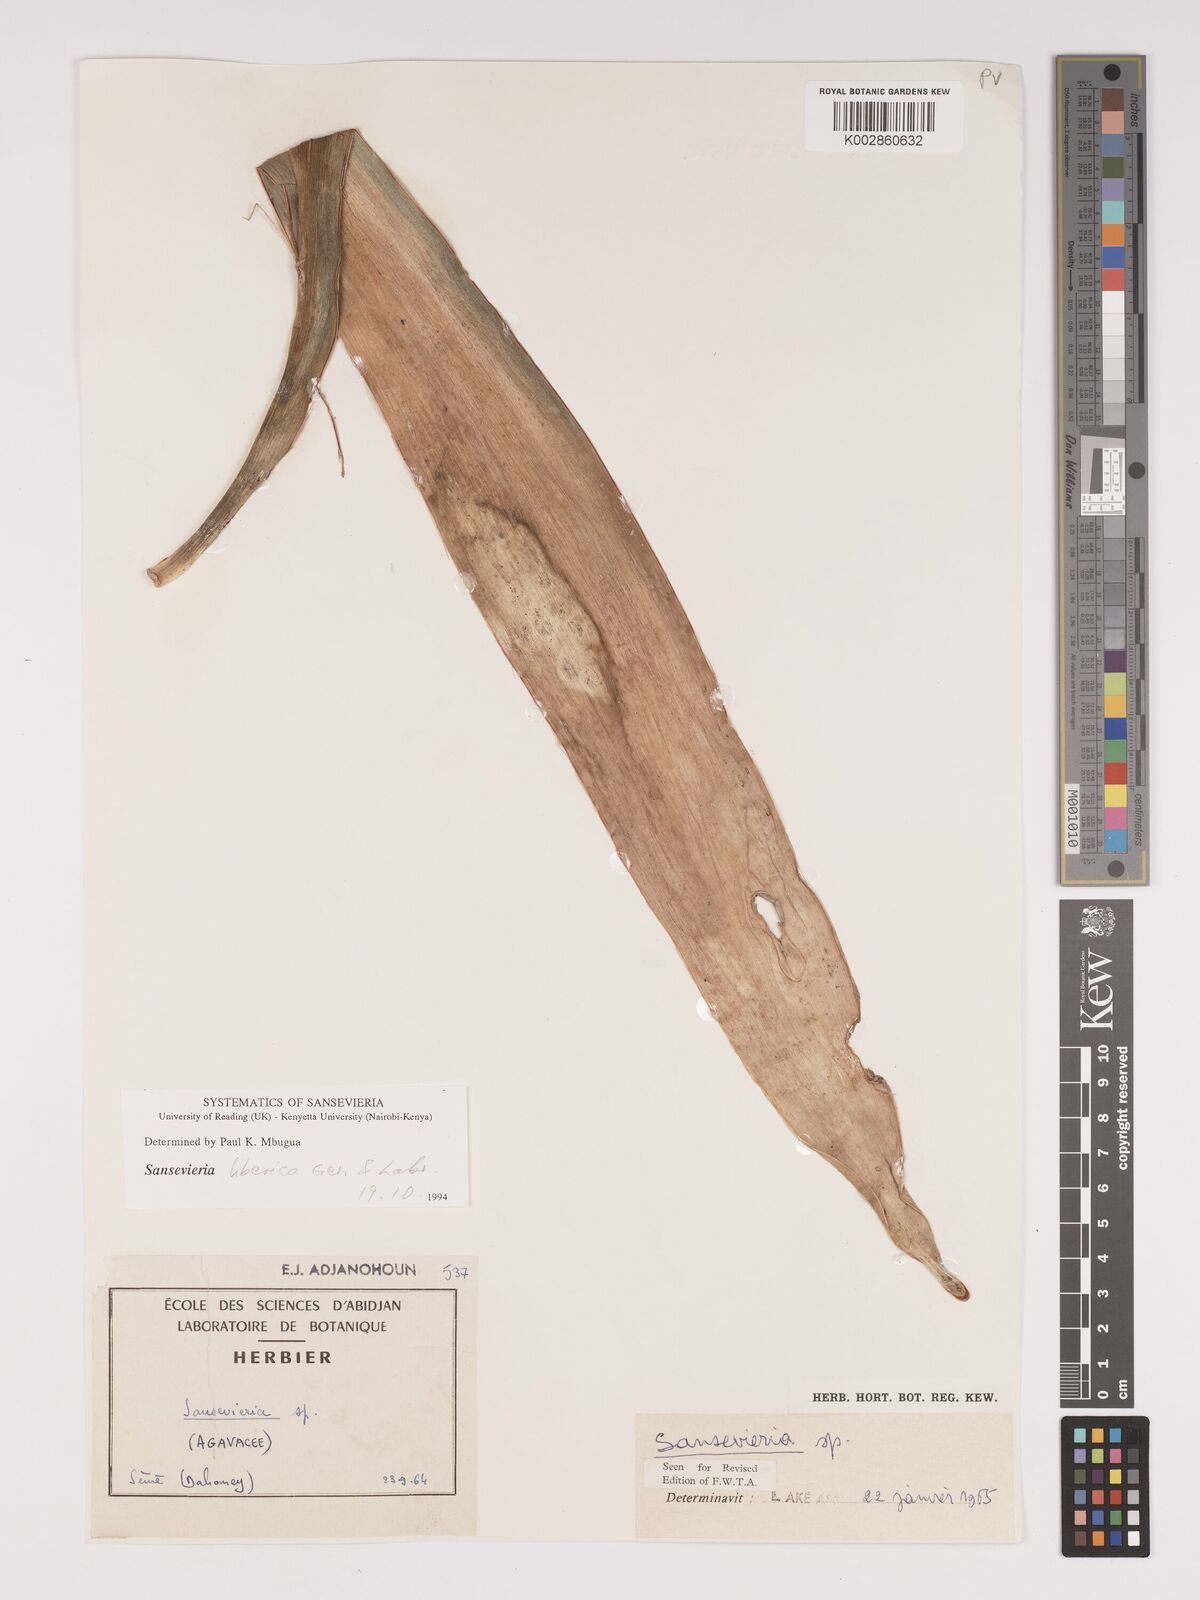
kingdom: Plantae
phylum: Tracheophyta
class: Liliopsida
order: Asparagales
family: Asparagaceae
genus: Dracaena
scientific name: Dracaena liberica
